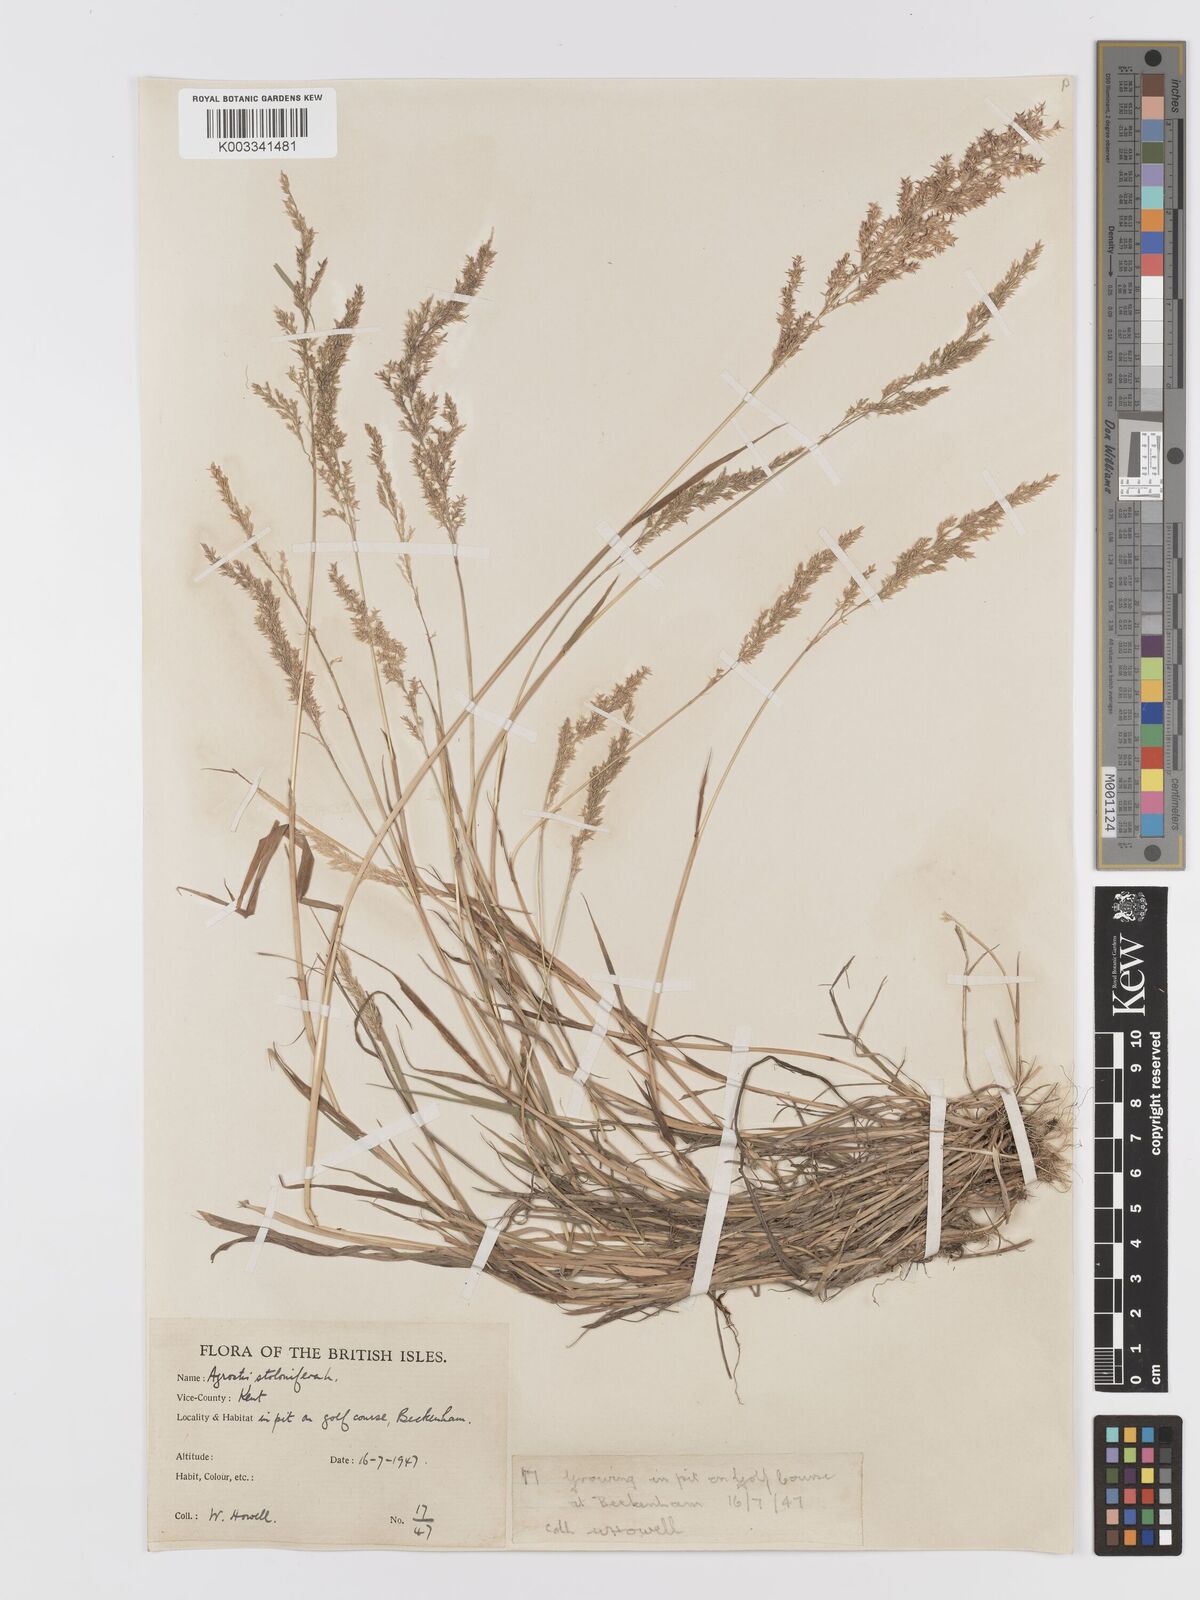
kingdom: Plantae
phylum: Tracheophyta
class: Liliopsida
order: Poales
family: Poaceae
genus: Agrostis
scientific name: Agrostis stolonifera
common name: Creeping bentgrass
